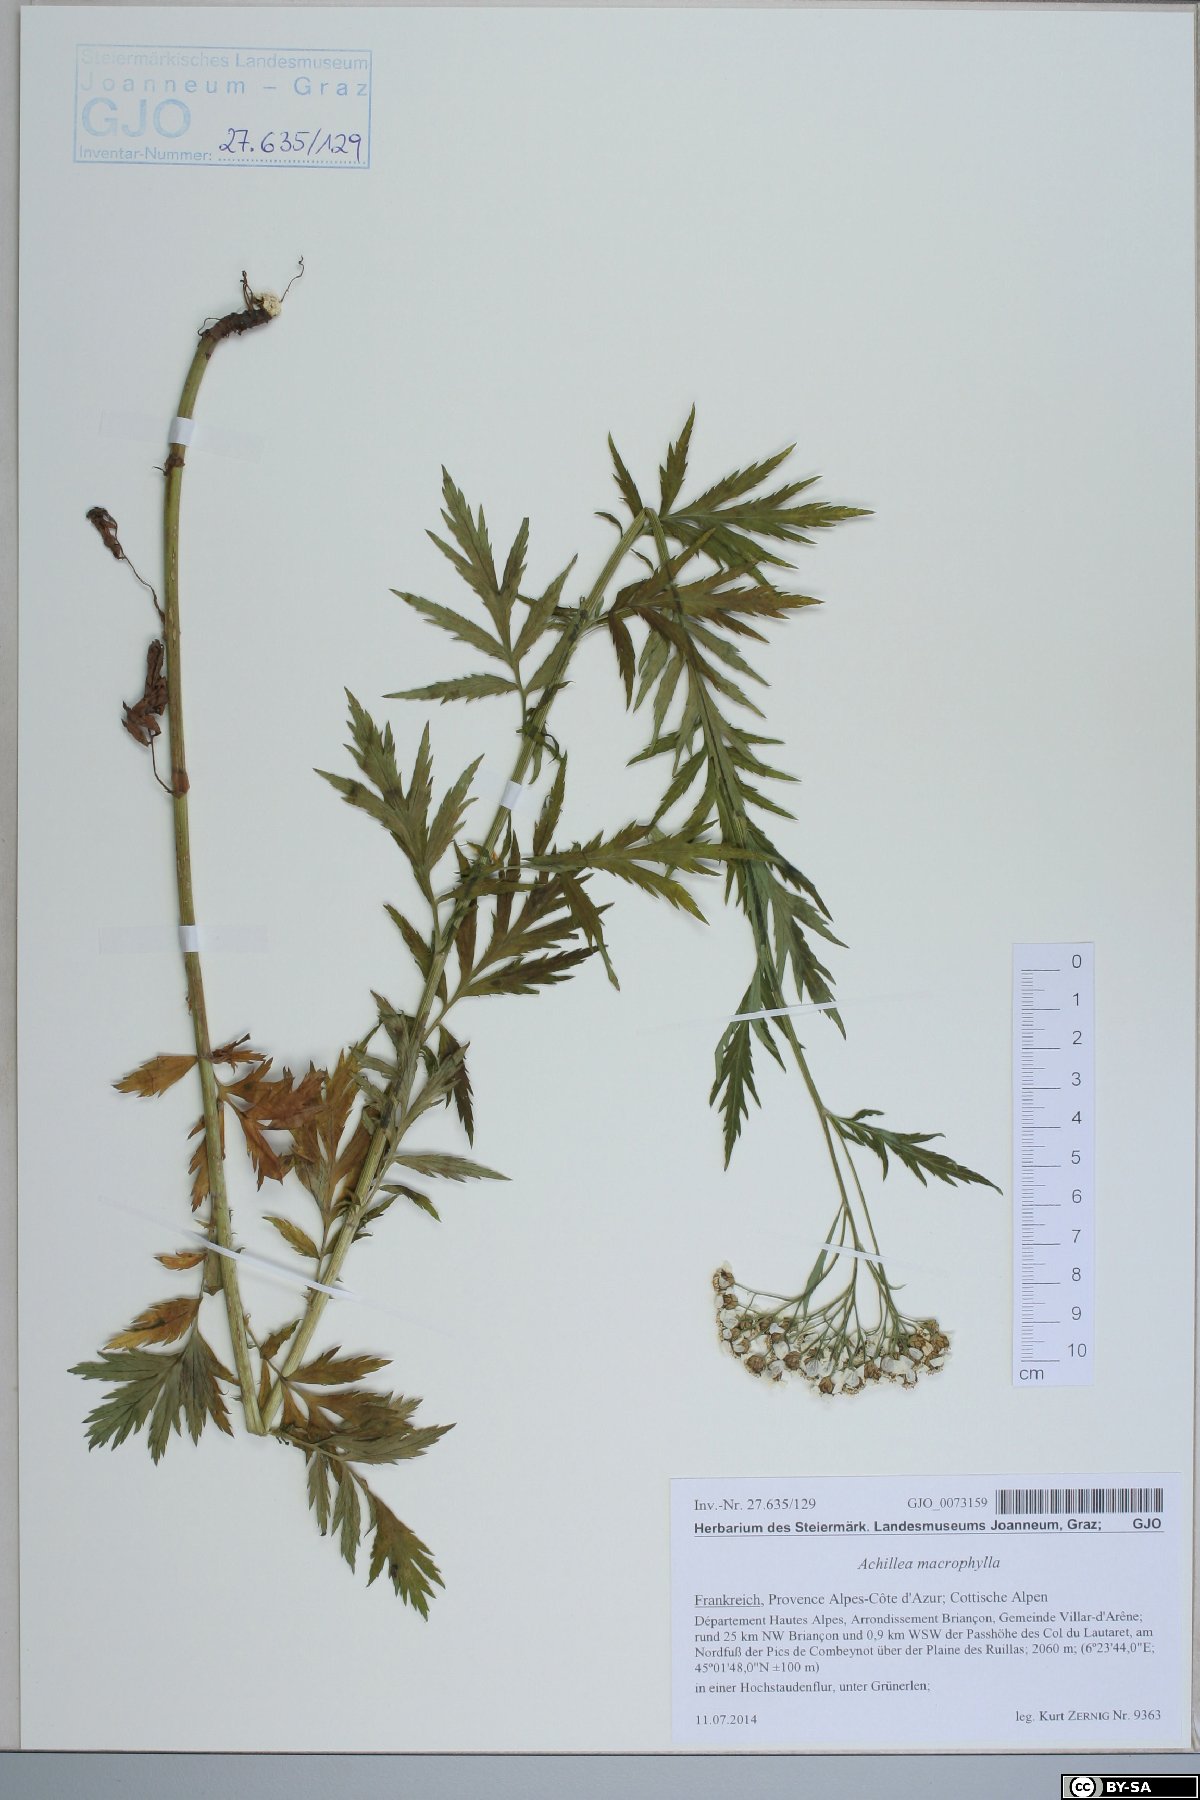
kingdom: Plantae
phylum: Tracheophyta
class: Magnoliopsida
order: Asterales
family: Asteraceae
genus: Achillea
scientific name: Achillea macrophylla
